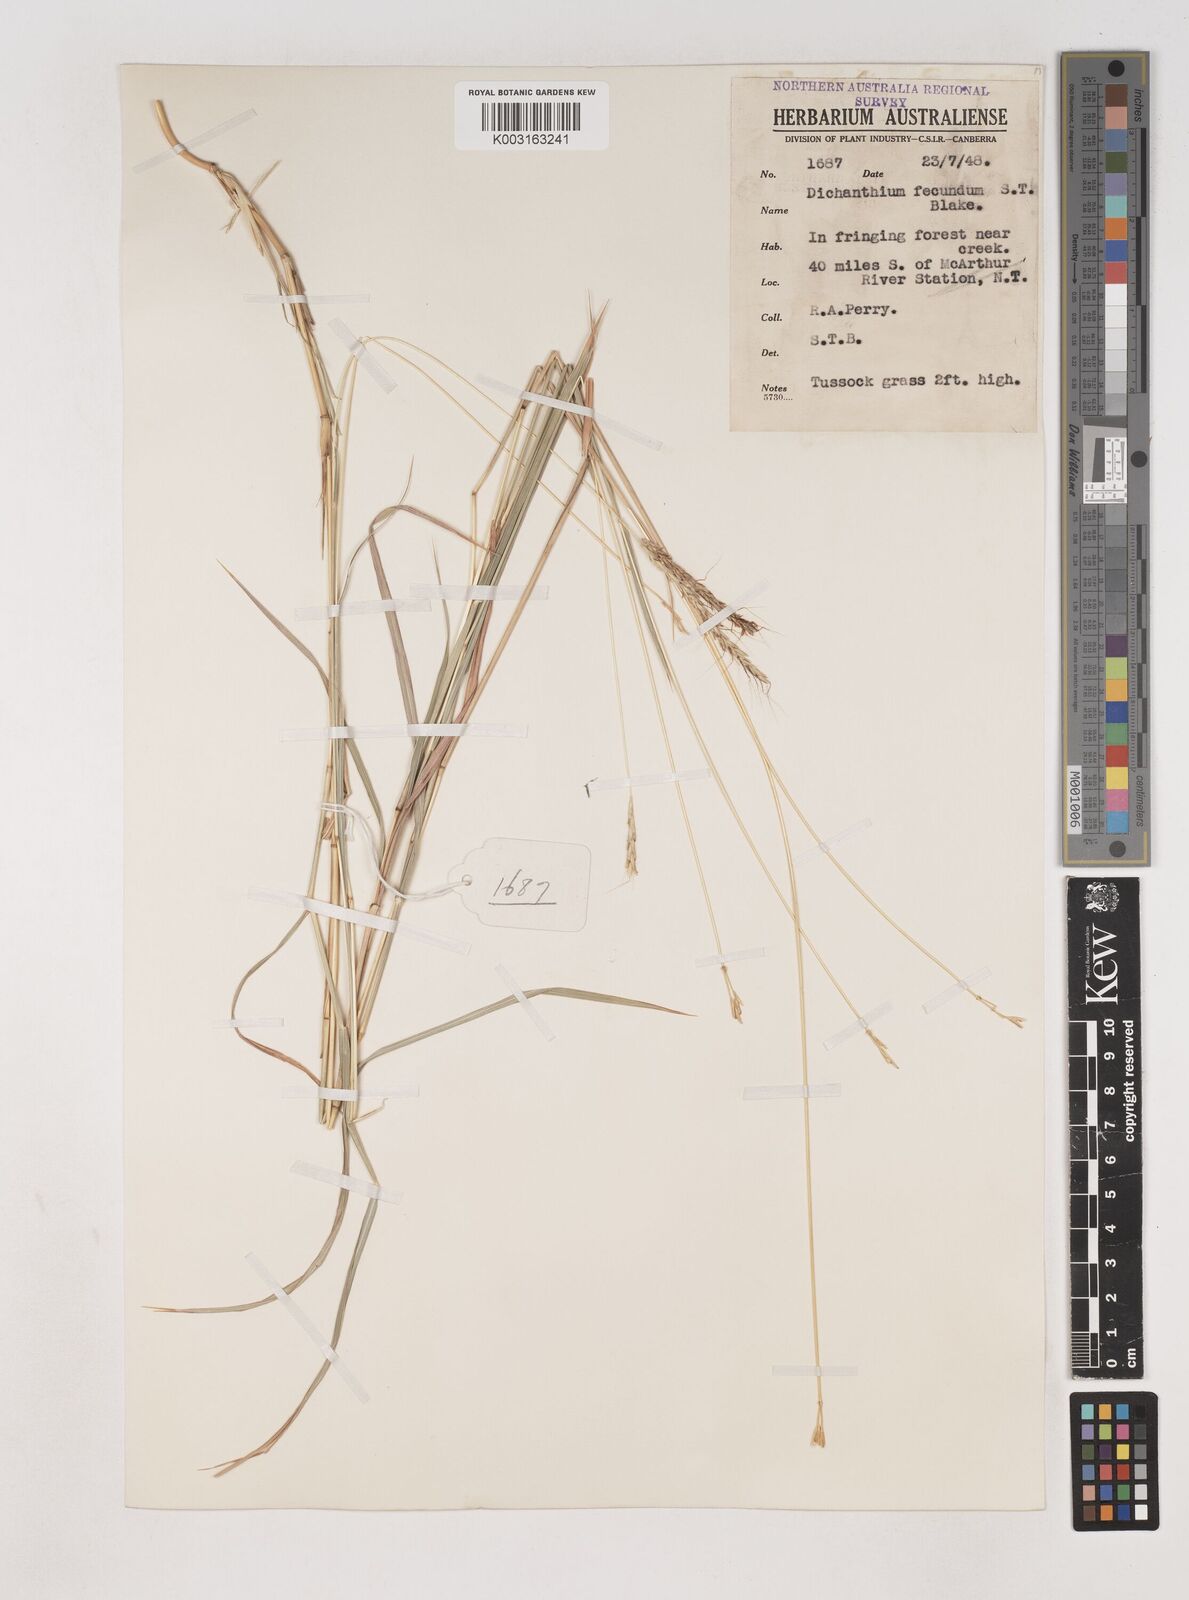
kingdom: Plantae
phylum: Tracheophyta
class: Liliopsida
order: Poales
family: Poaceae
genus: Dichanthium
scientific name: Dichanthium fecundum
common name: Bundle-bundle
